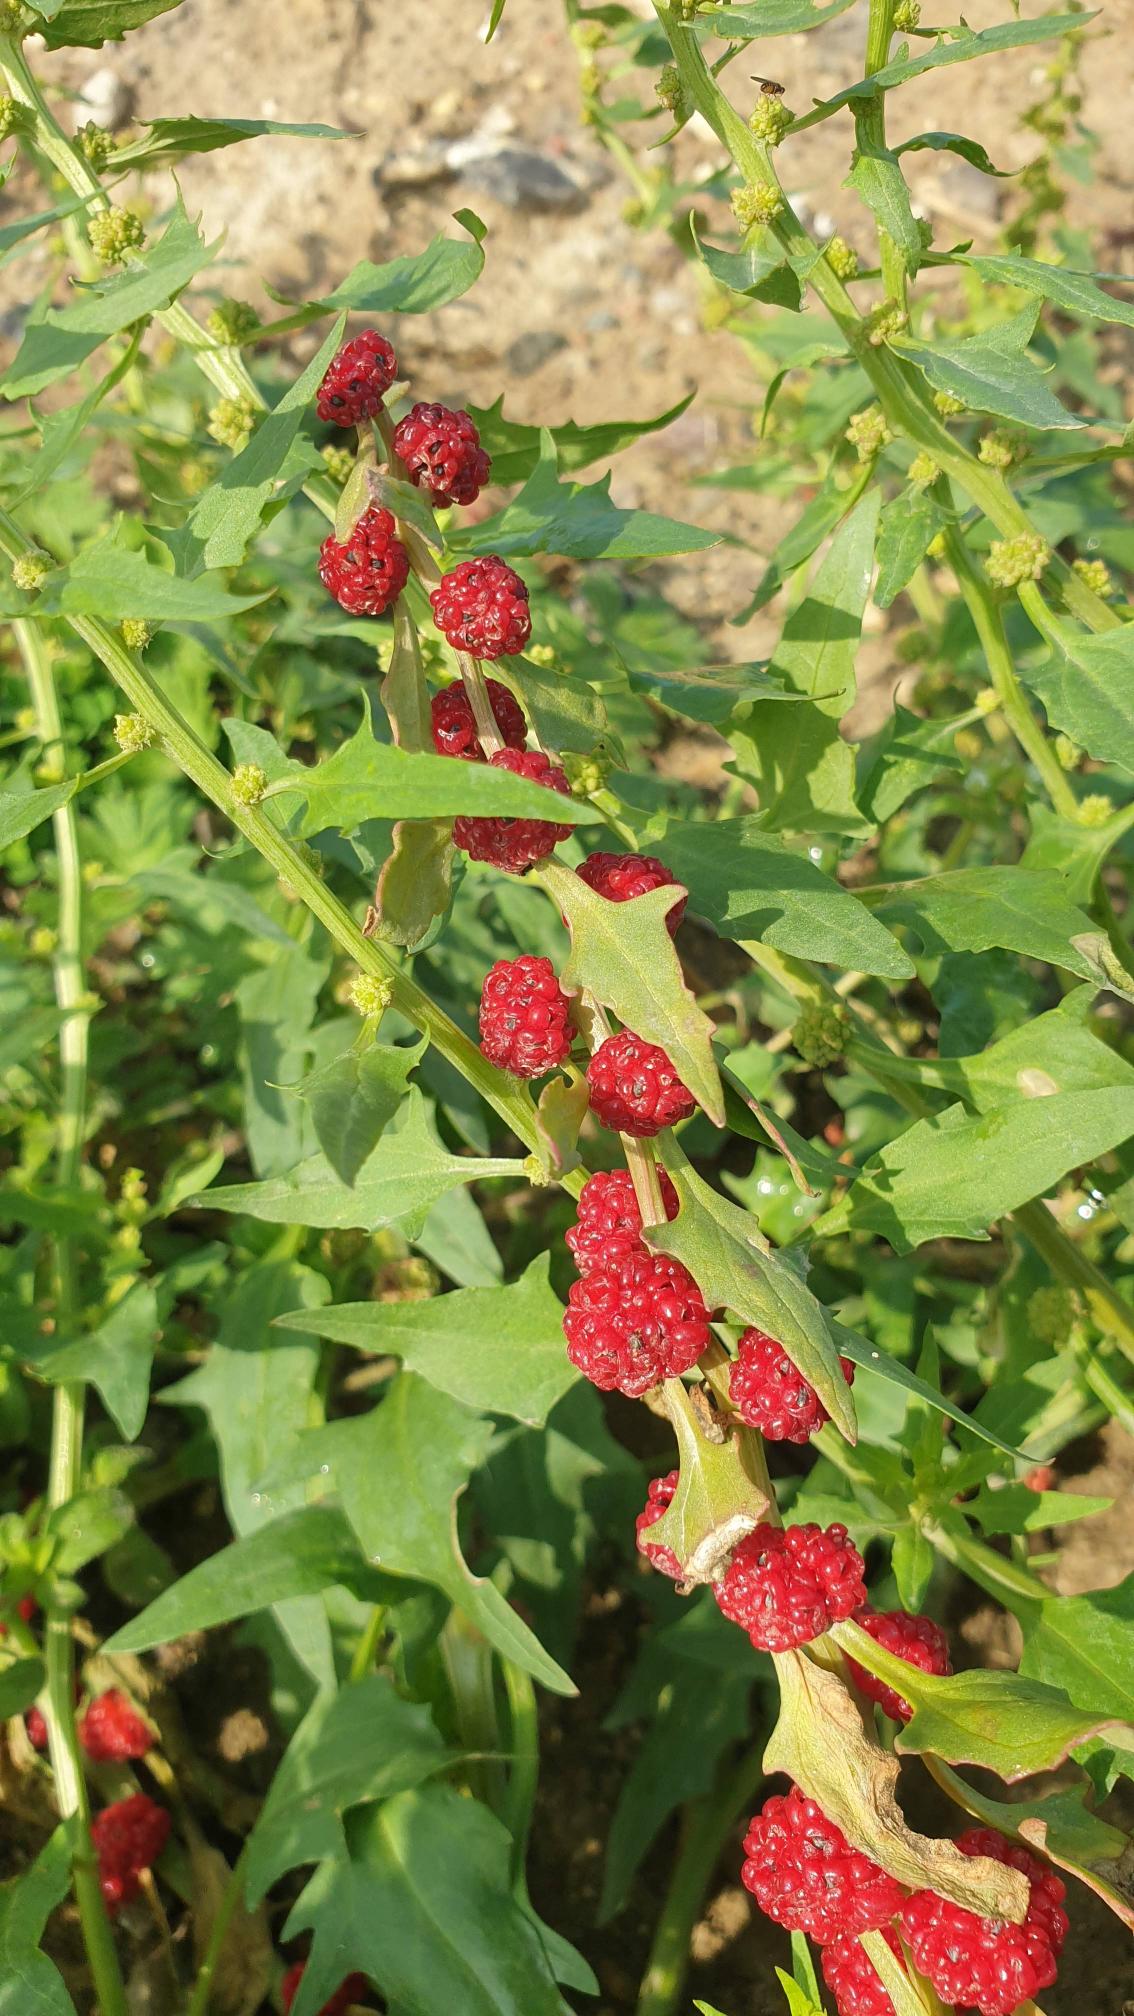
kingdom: Plantae
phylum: Tracheophyta
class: Magnoliopsida
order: Caryophyllales
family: Amaranthaceae
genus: Blitum
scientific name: Blitum virgatum
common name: Aks-jordbærspinat
